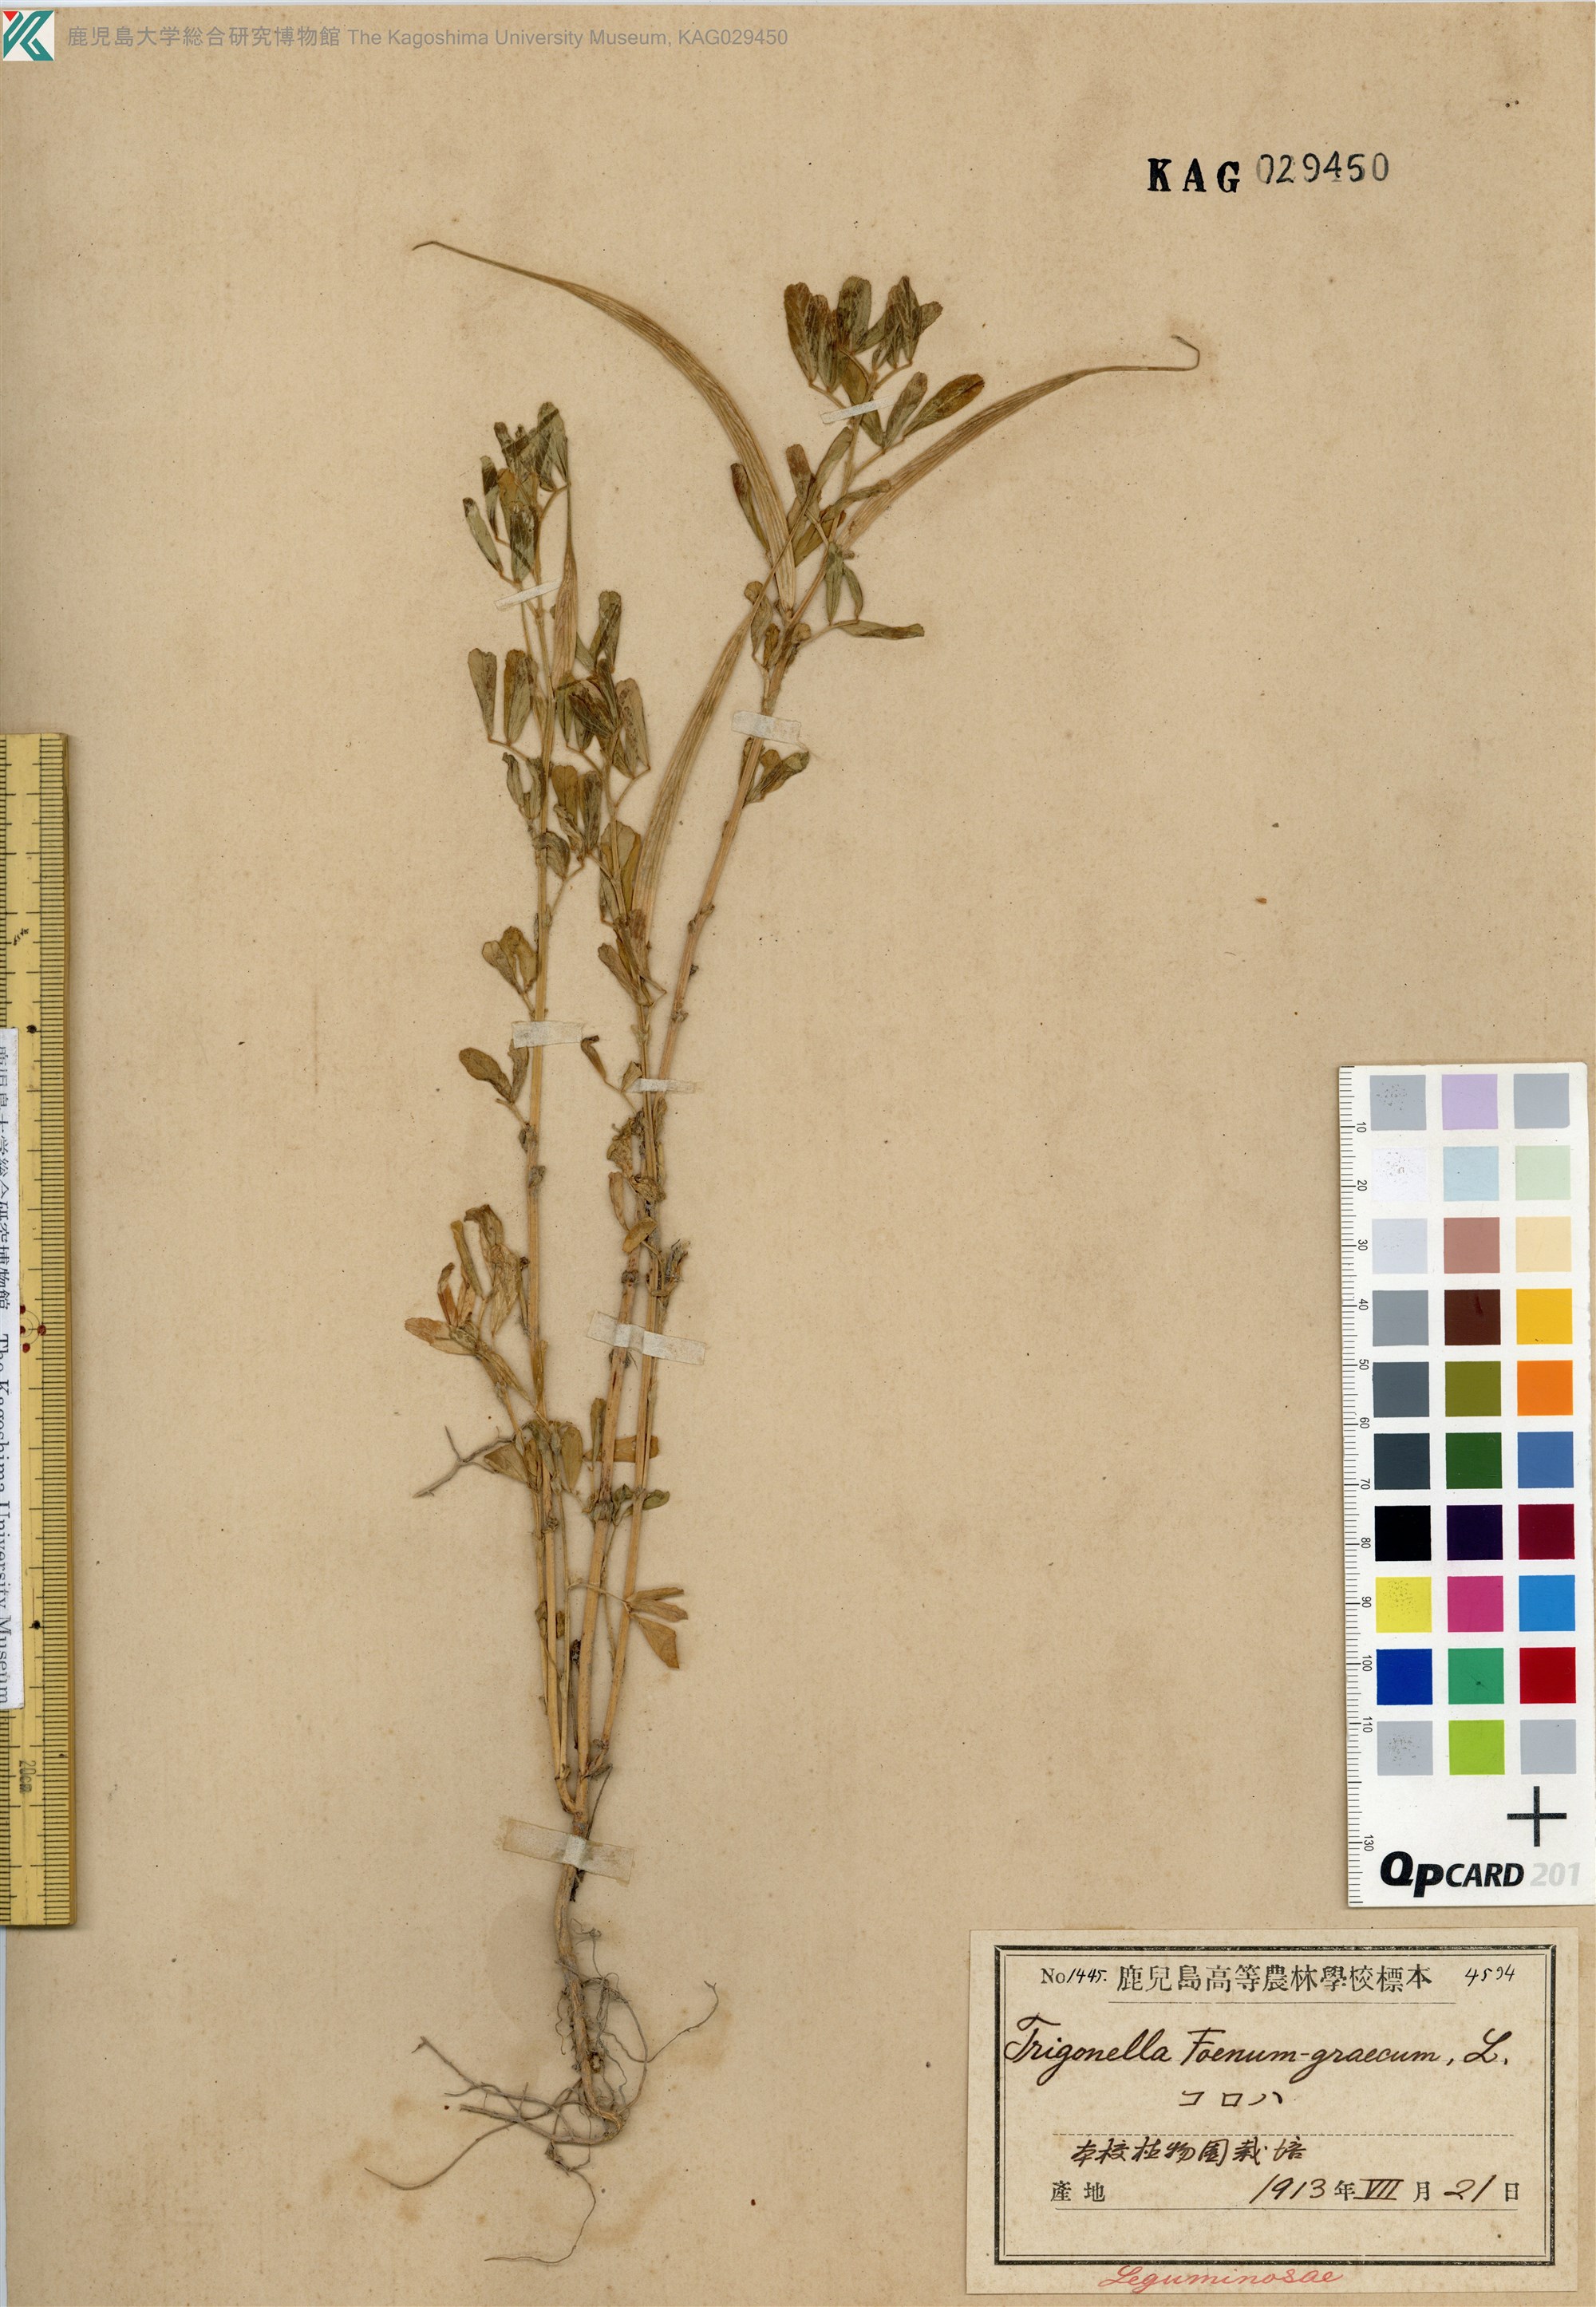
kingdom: Plantae
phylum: Tracheophyta
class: Magnoliopsida
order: Fabales
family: Fabaceae
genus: Trigonella
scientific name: Trigonella foenum-graecum
